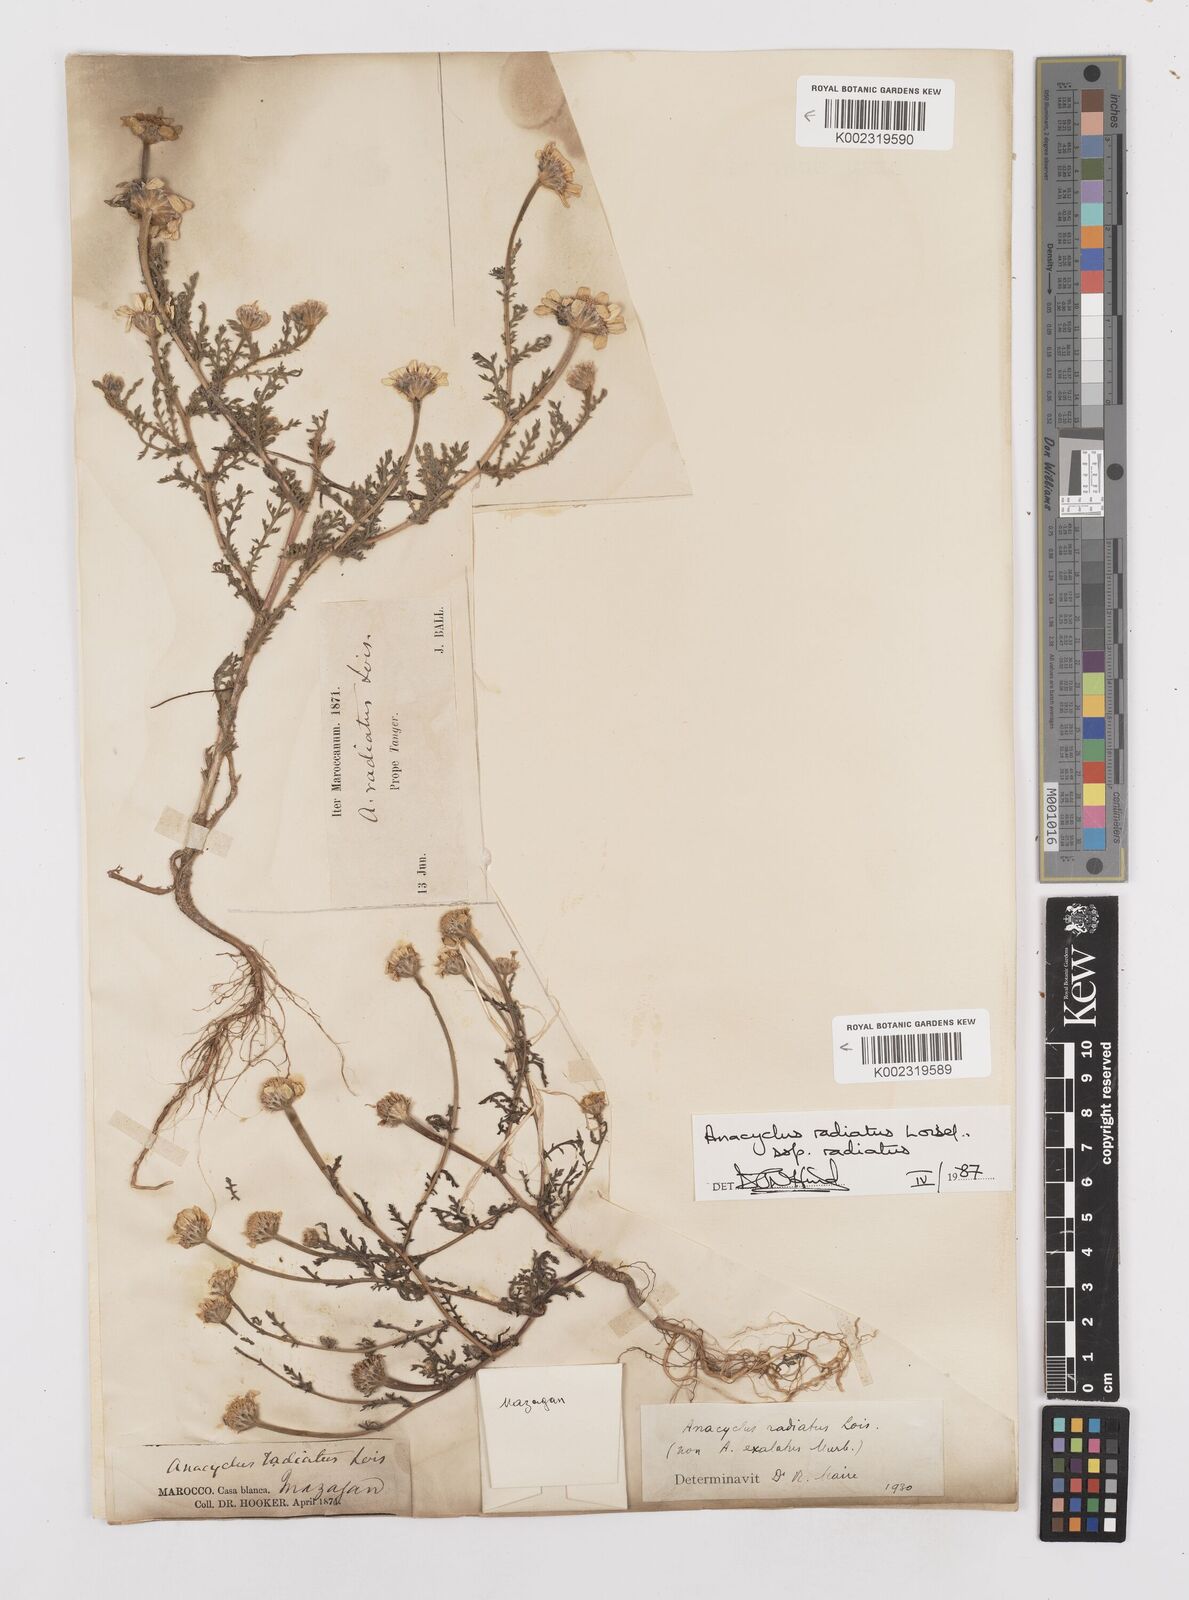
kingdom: Plantae
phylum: Tracheophyta
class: Magnoliopsida
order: Asterales
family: Asteraceae
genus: Anacyclus
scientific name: Anacyclus radiatus
